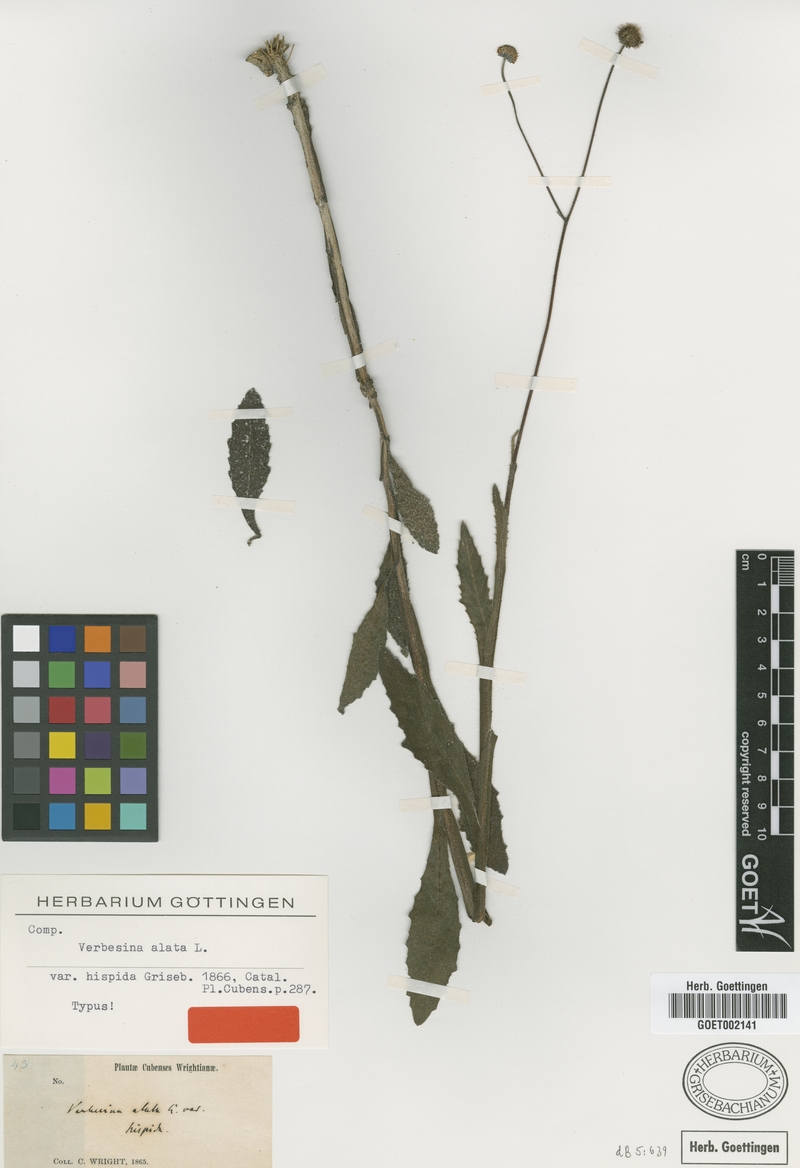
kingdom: Plantae
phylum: Tracheophyta
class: Magnoliopsida
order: Asterales
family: Asteraceae
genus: Verbesina
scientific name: Verbesina alata
